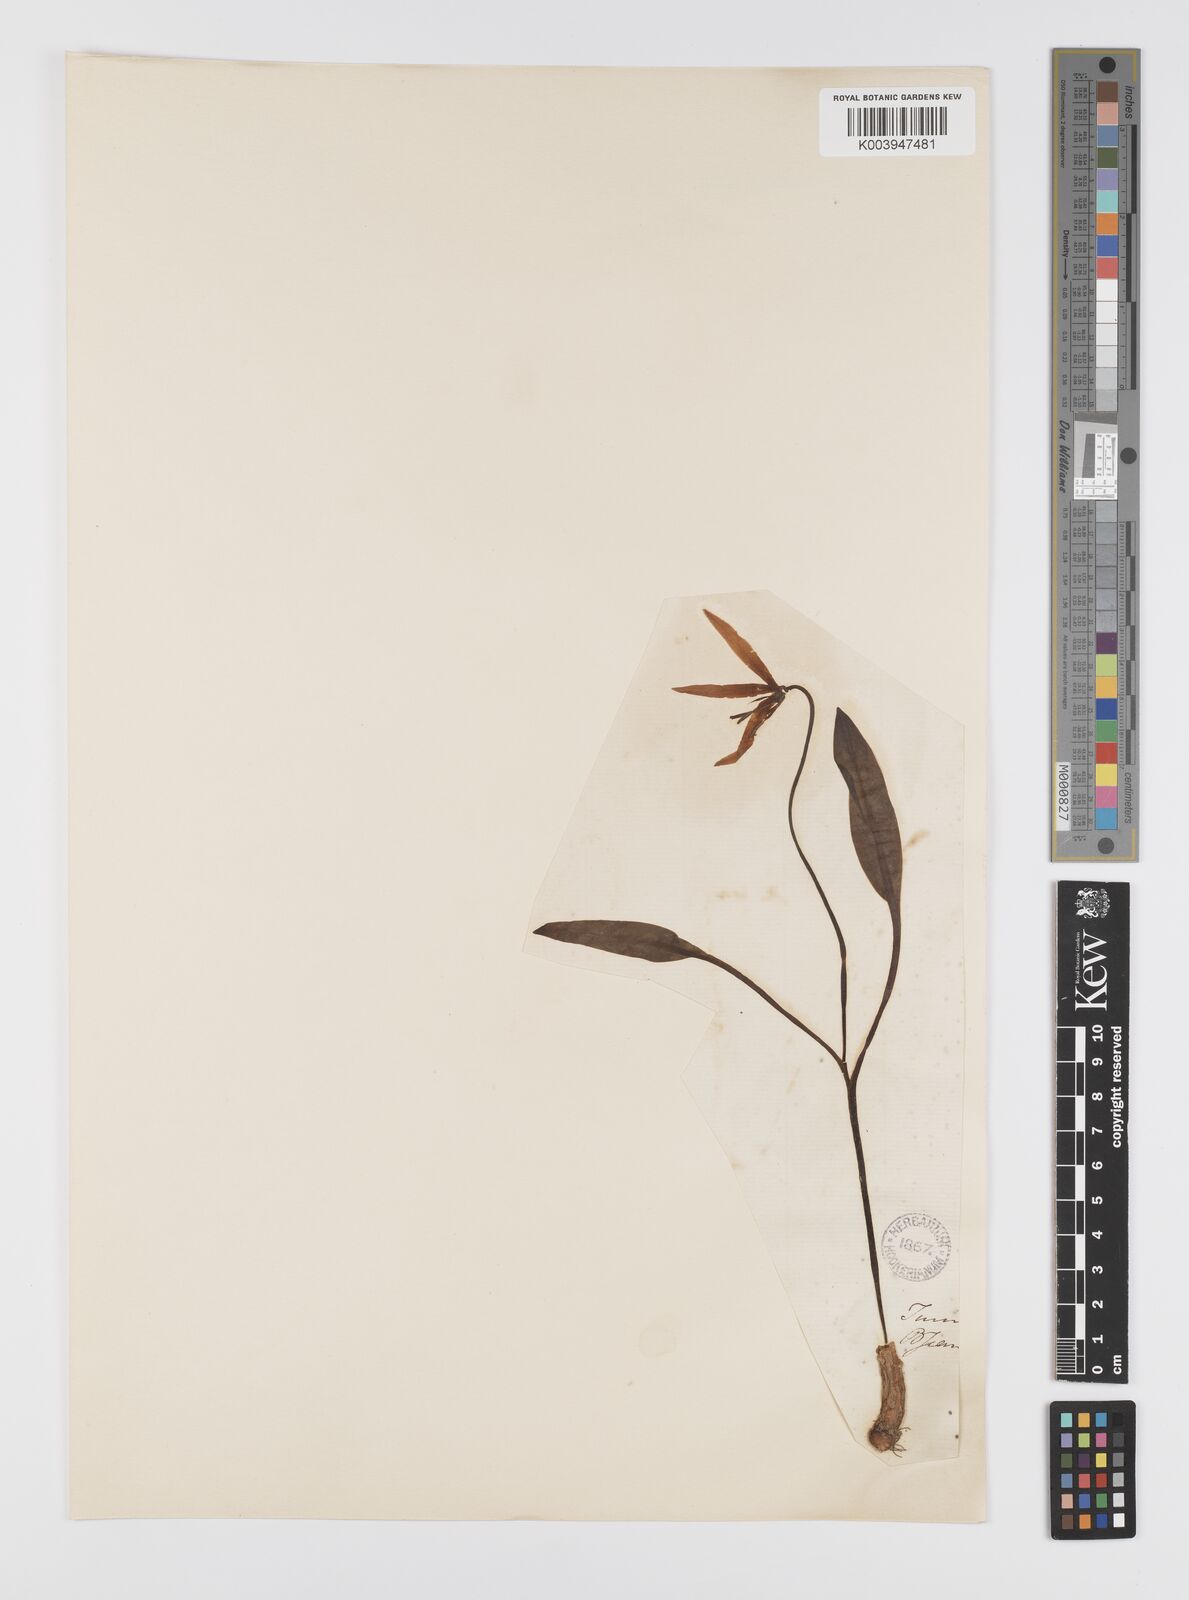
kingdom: Plantae
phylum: Tracheophyta
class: Liliopsida
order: Liliales
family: Liliaceae
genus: Erythronium
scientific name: Erythronium dens-canis
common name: Dog's-tooth-violet
